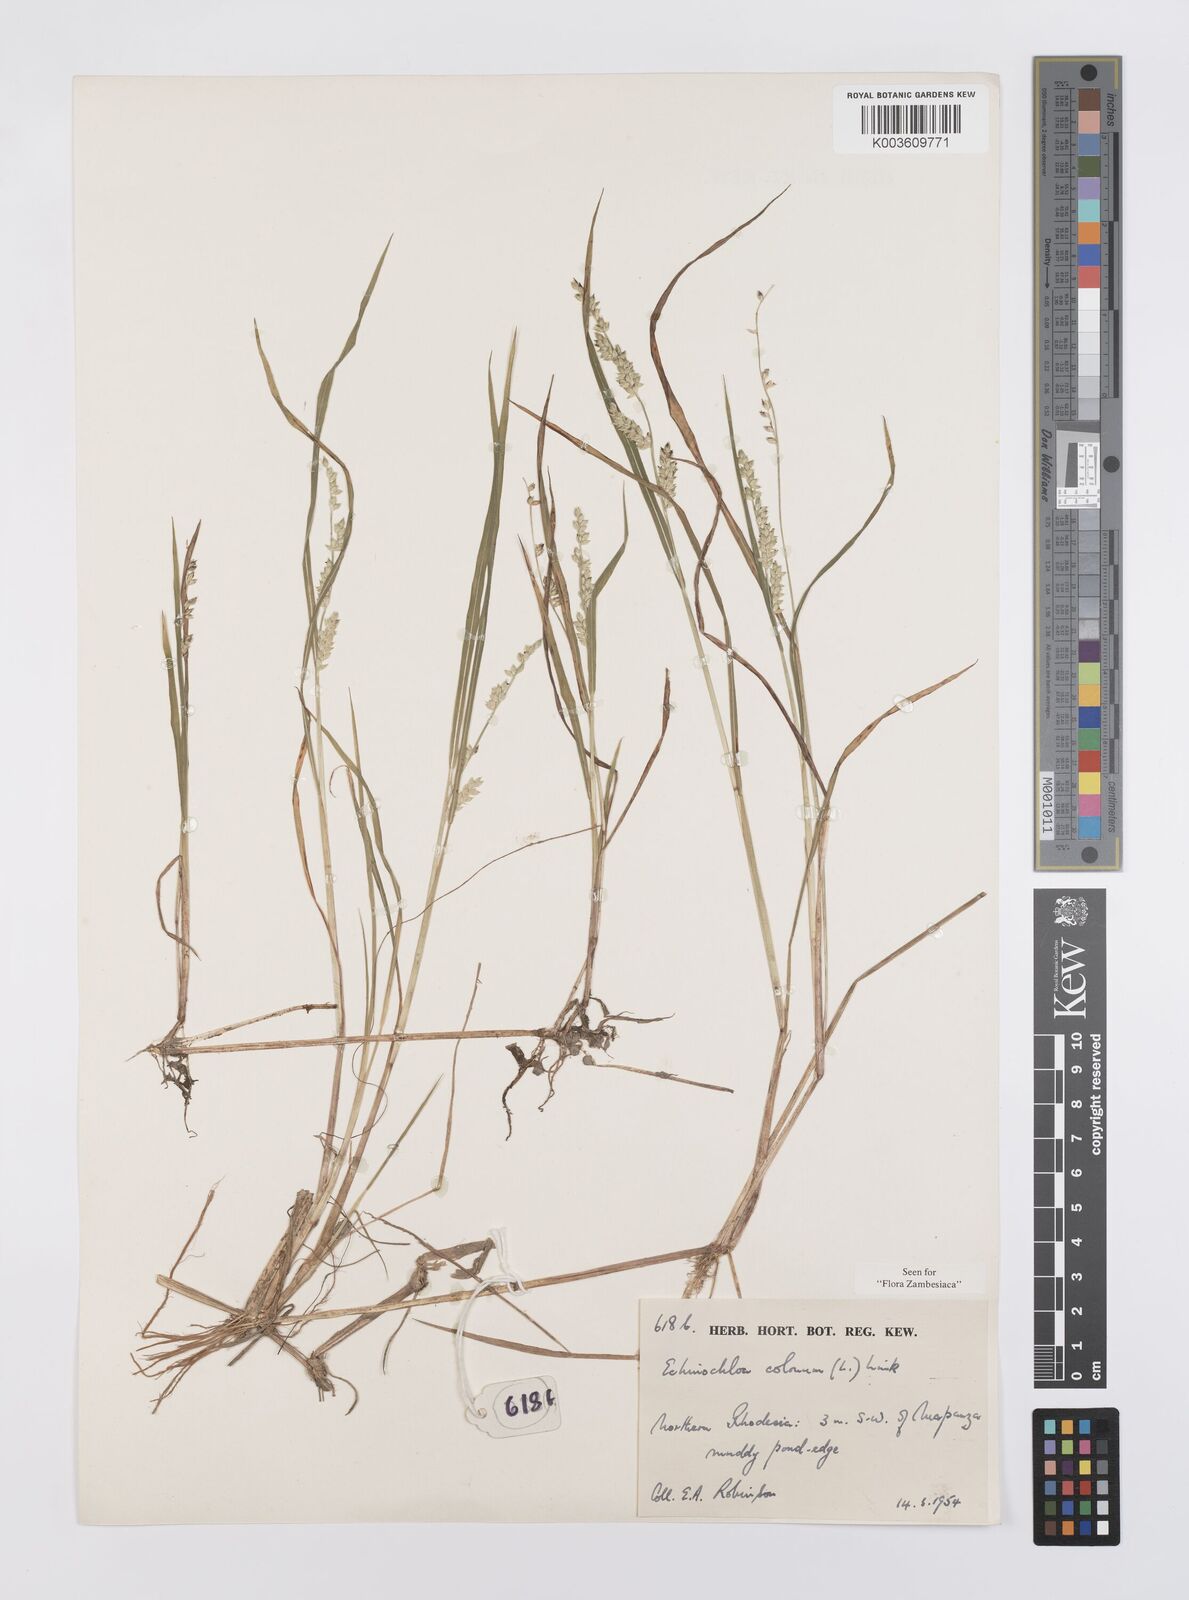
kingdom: Plantae
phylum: Tracheophyta
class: Liliopsida
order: Poales
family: Poaceae
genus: Echinochloa
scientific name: Echinochloa colonum
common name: Jungle rice
